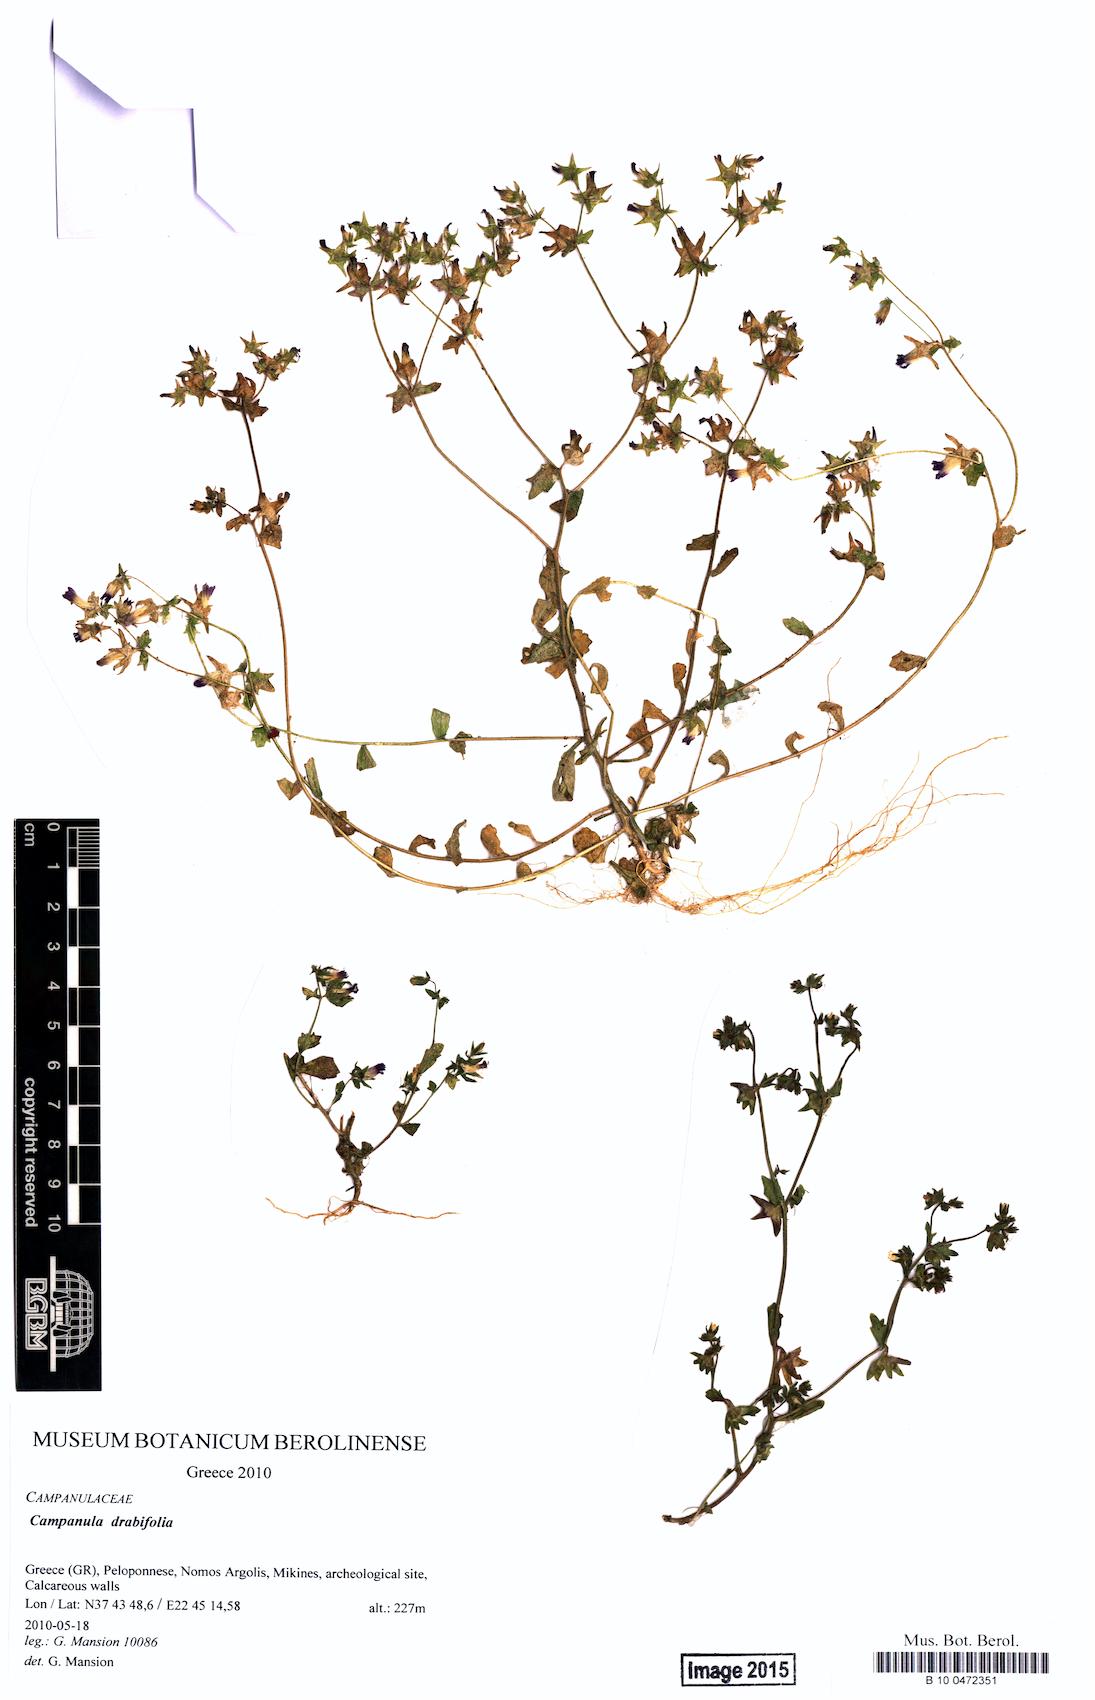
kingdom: Plantae
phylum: Tracheophyta
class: Magnoliopsida
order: Asterales
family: Campanulaceae
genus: Campanula
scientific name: Campanula drabifolia
